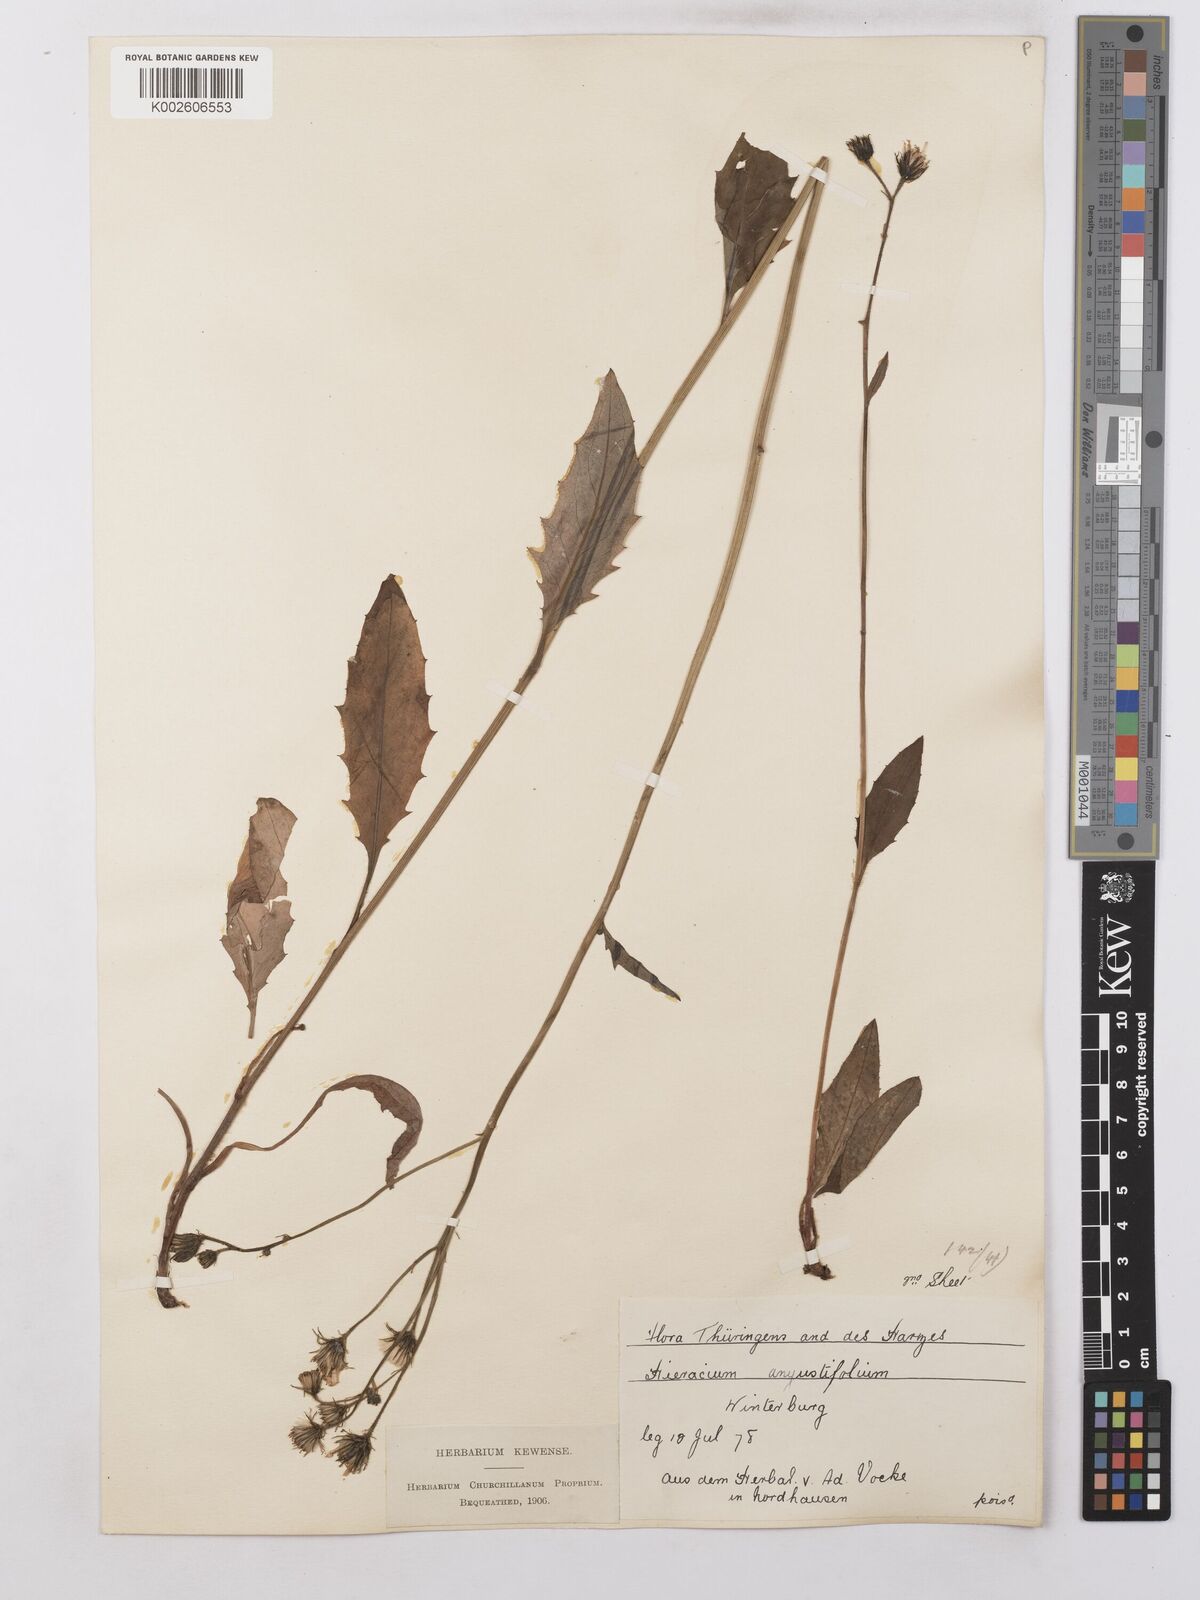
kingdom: Plantae
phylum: Tracheophyta
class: Magnoliopsida
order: Asterales
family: Asteraceae
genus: Hieracium
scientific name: Hieracium lachenalii
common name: Common hawkweed
